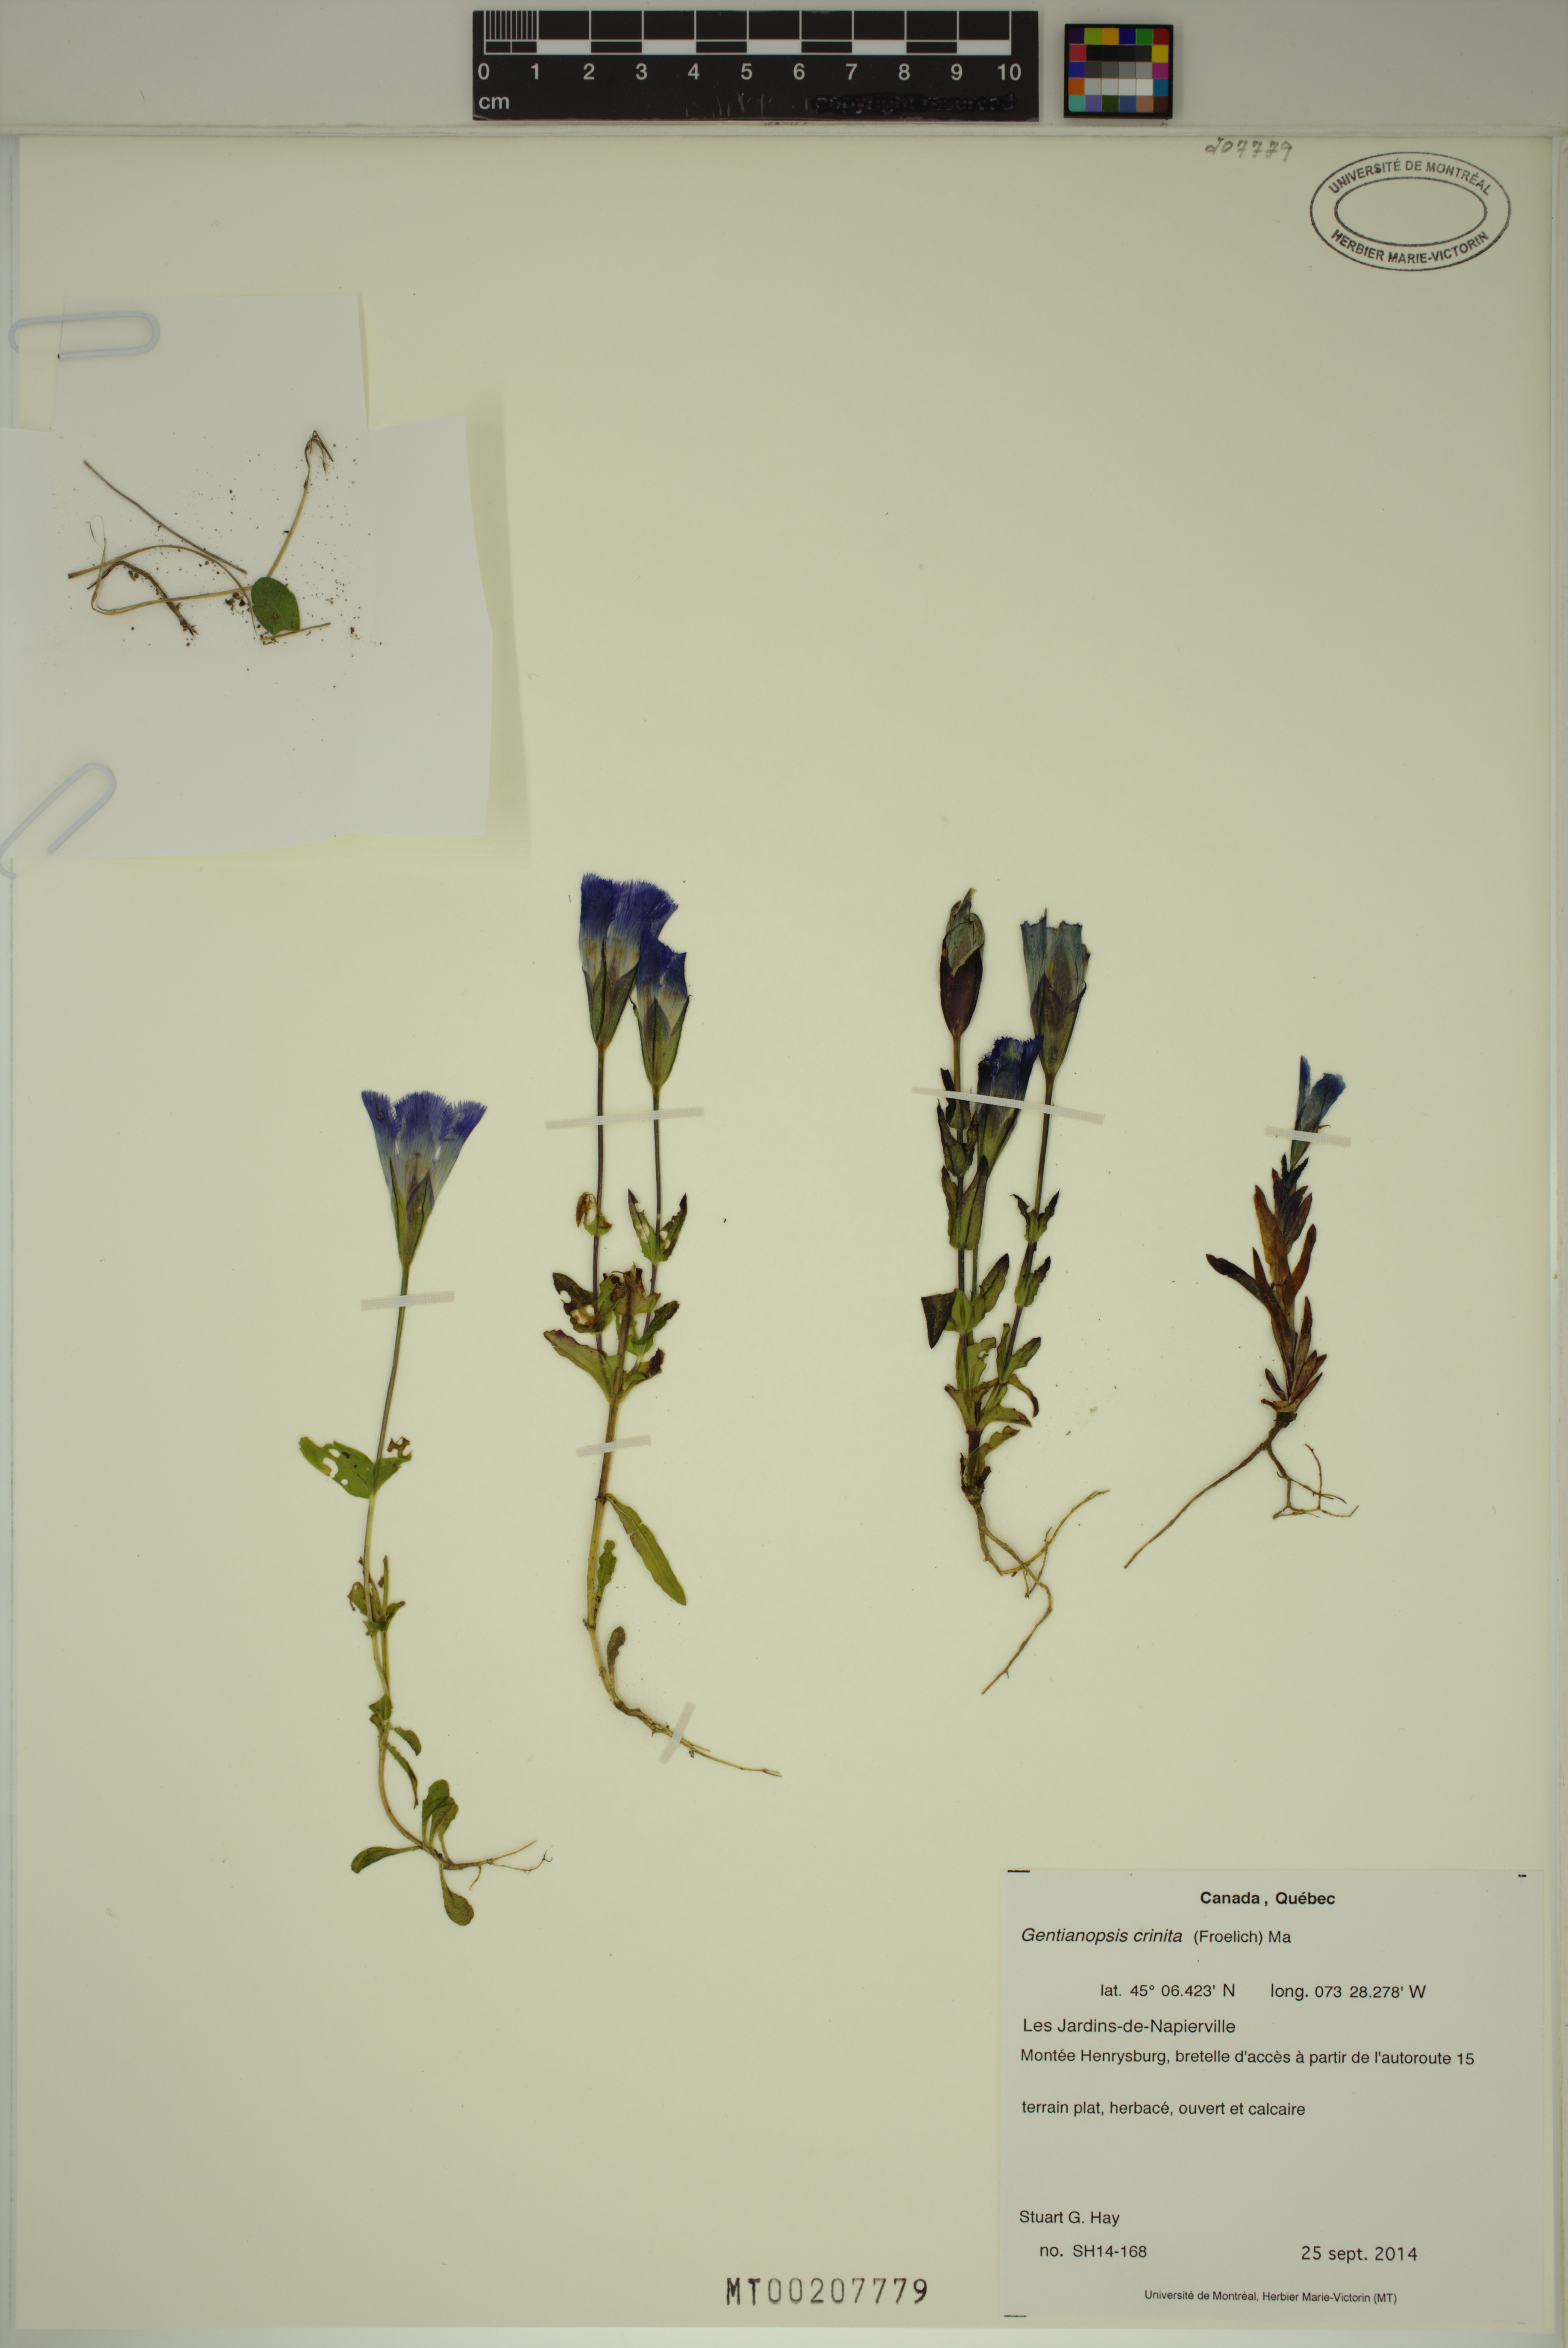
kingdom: Plantae
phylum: Tracheophyta
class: Magnoliopsida
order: Gentianales
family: Gentianaceae
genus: Gentianopsis
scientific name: Gentianopsis crinita
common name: Fringed-gentian
